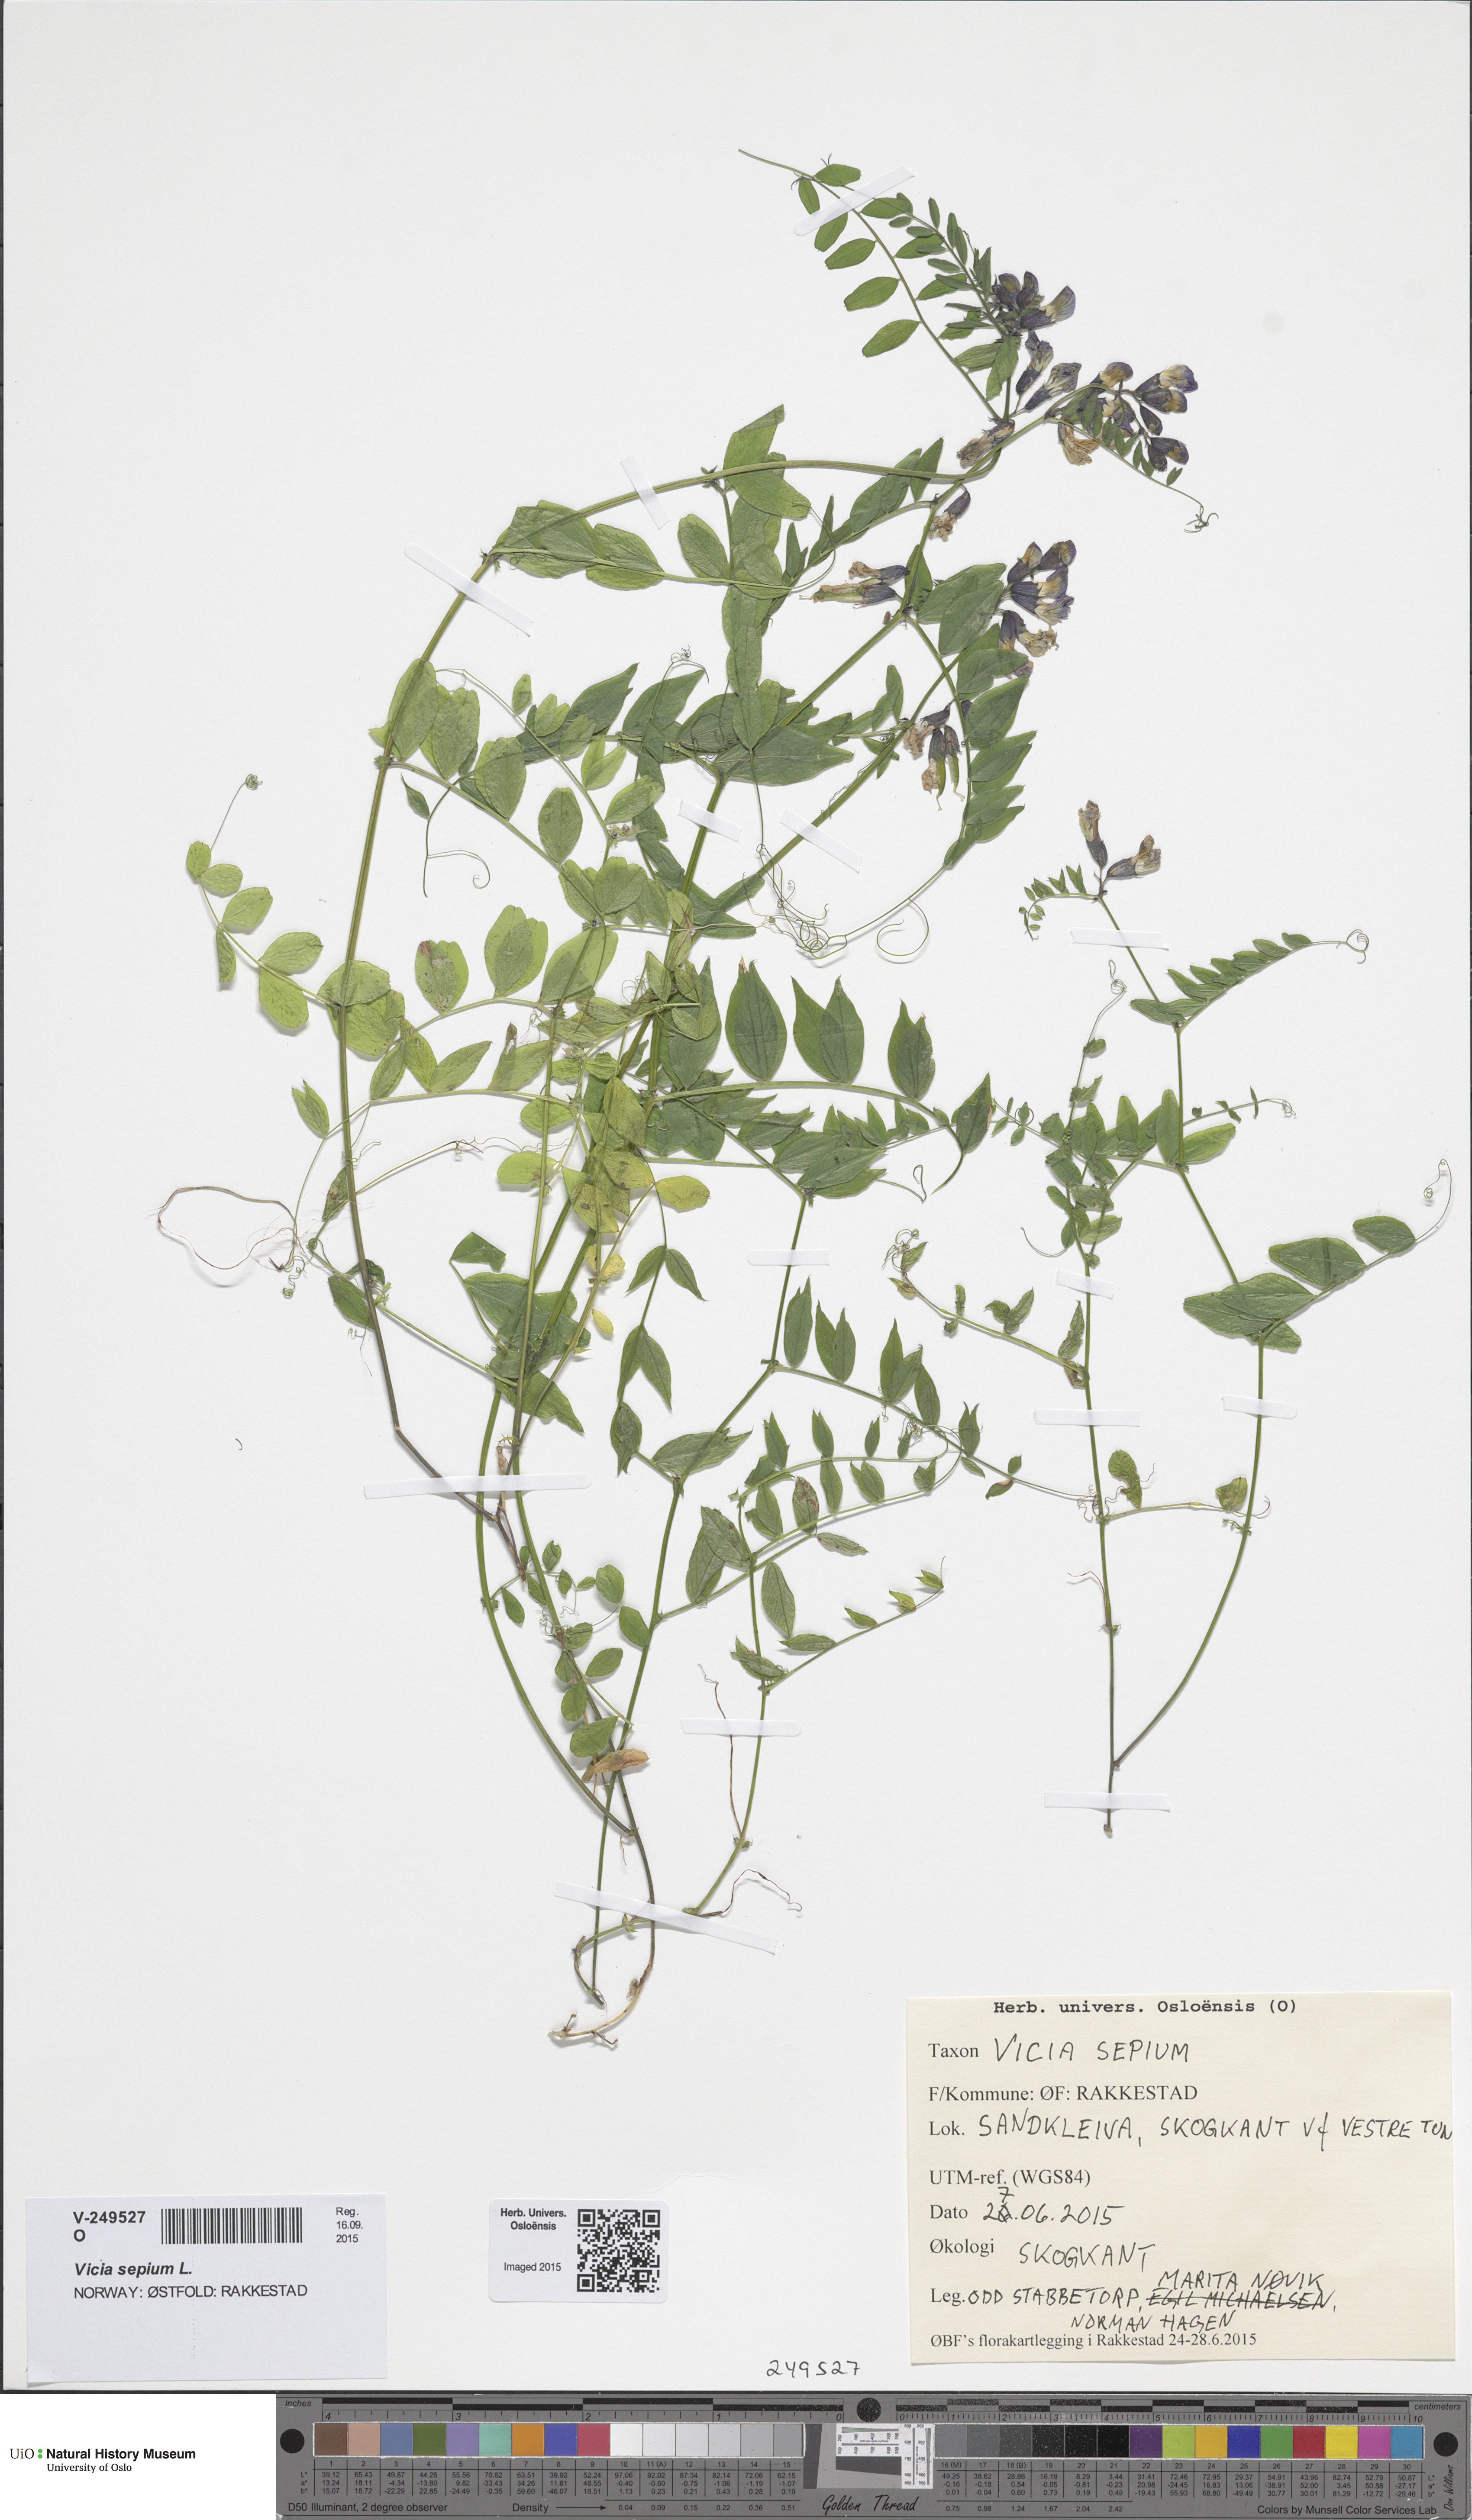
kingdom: Plantae
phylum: Tracheophyta
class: Magnoliopsida
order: Fabales
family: Fabaceae
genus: Vicia
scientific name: Vicia sepium
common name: Bush vetch
